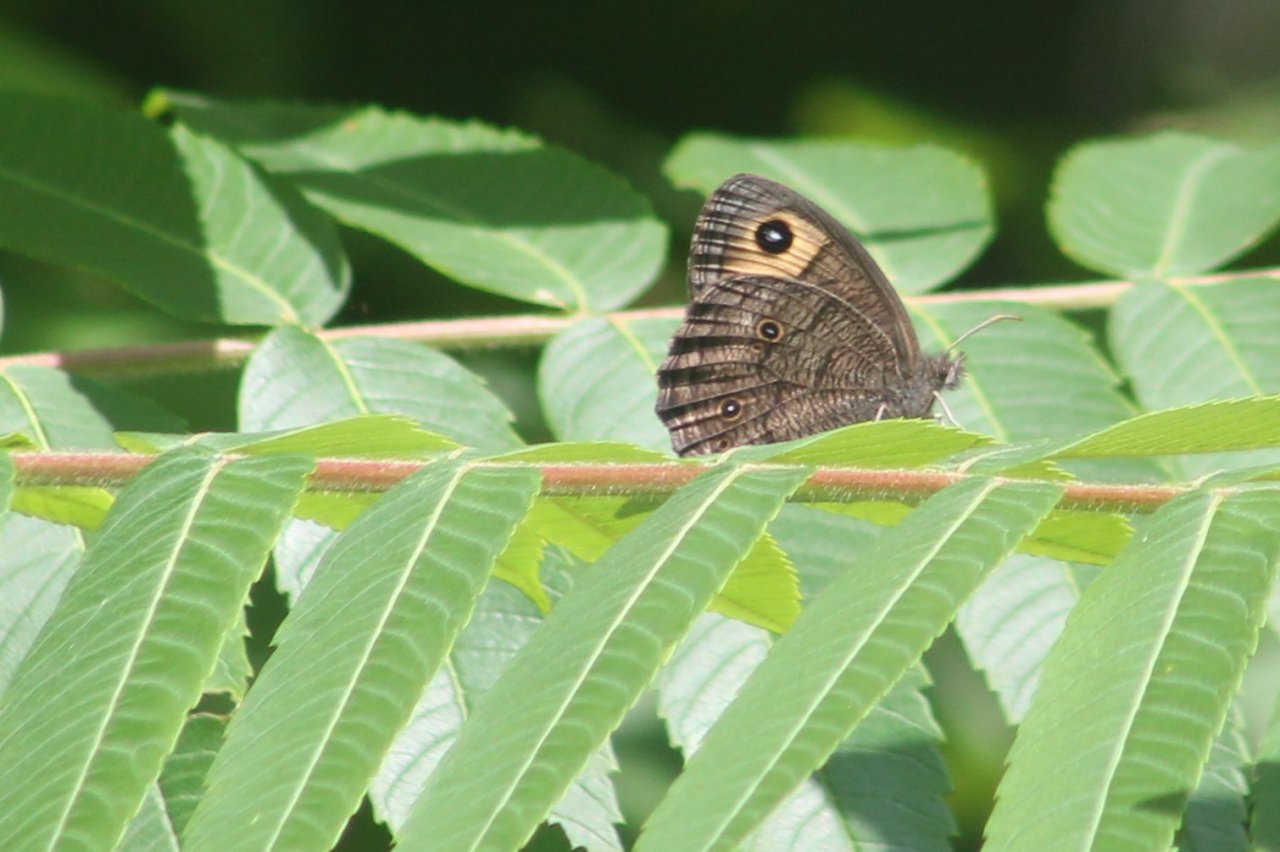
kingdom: Animalia
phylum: Arthropoda
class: Insecta
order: Lepidoptera
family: Nymphalidae
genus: Cercyonis
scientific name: Cercyonis pegala
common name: Common Wood-Nymph
